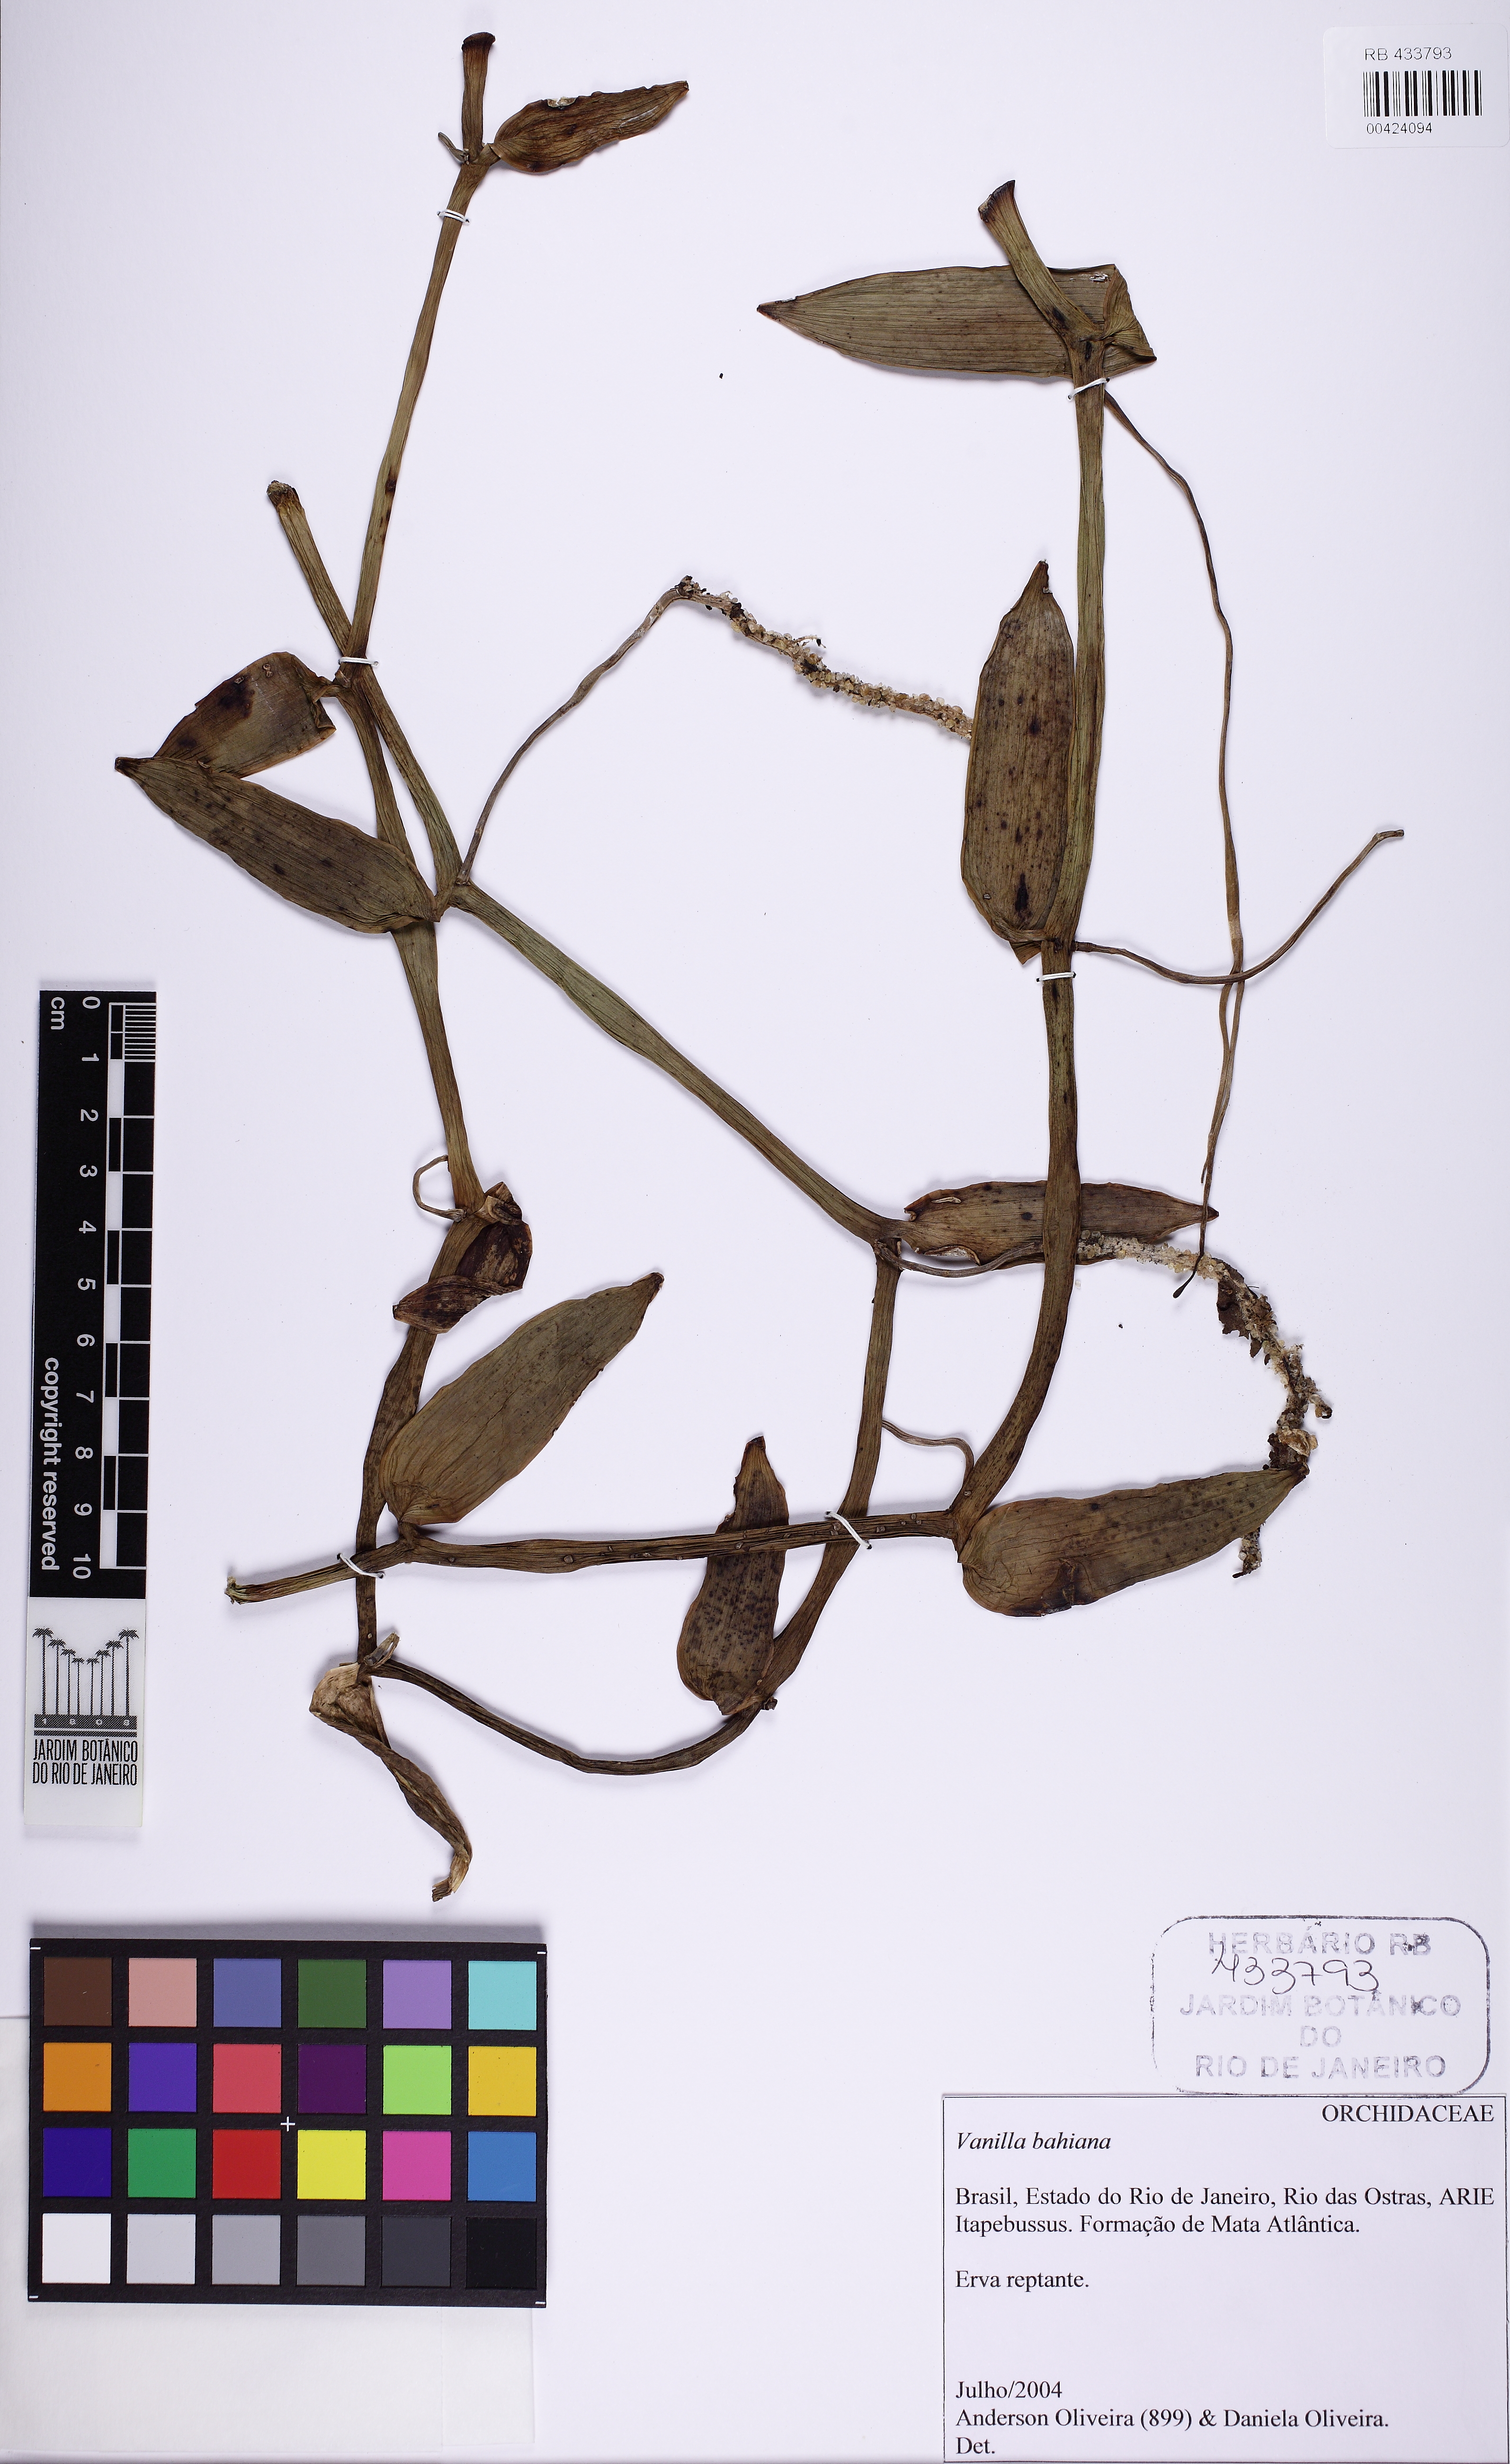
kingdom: Plantae
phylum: Tracheophyta
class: Liliopsida
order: Asparagales
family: Orchidaceae
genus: Vanilla
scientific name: Vanilla phaeantha
